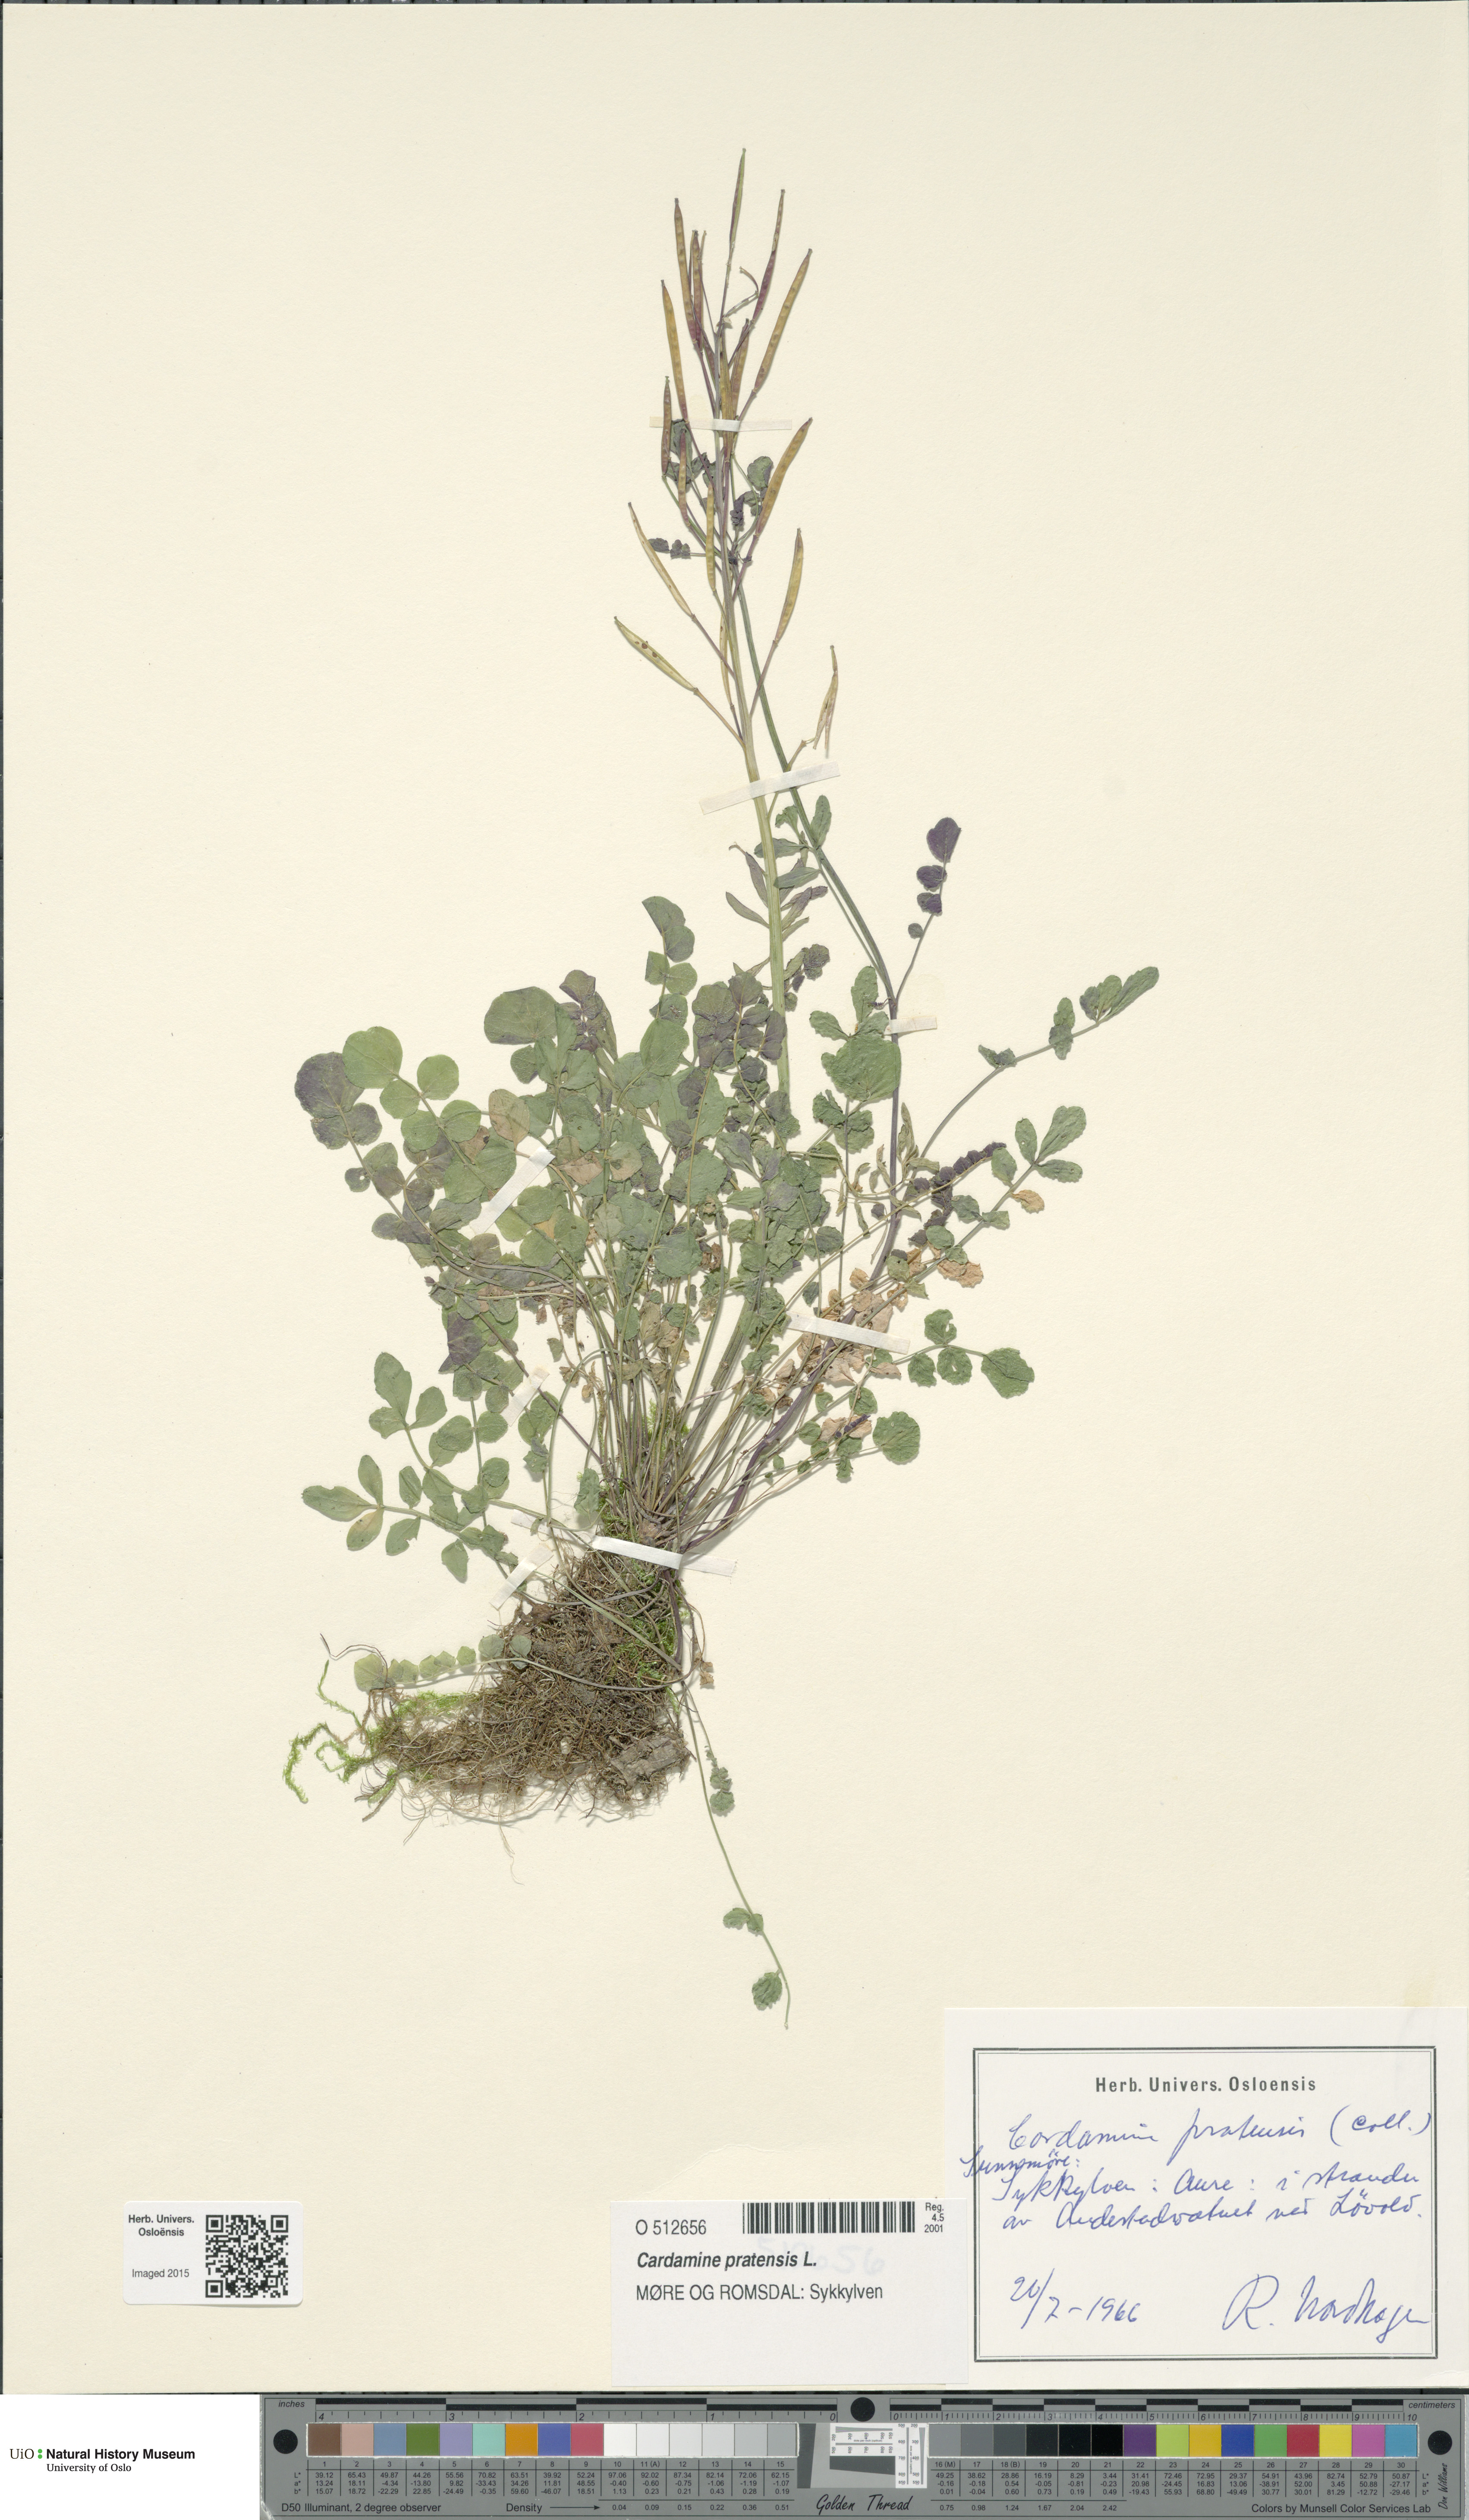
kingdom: Plantae
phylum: Tracheophyta
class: Magnoliopsida
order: Brassicales
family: Brassicaceae
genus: Cardamine
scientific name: Cardamine pratensis
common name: Cuckoo flower
